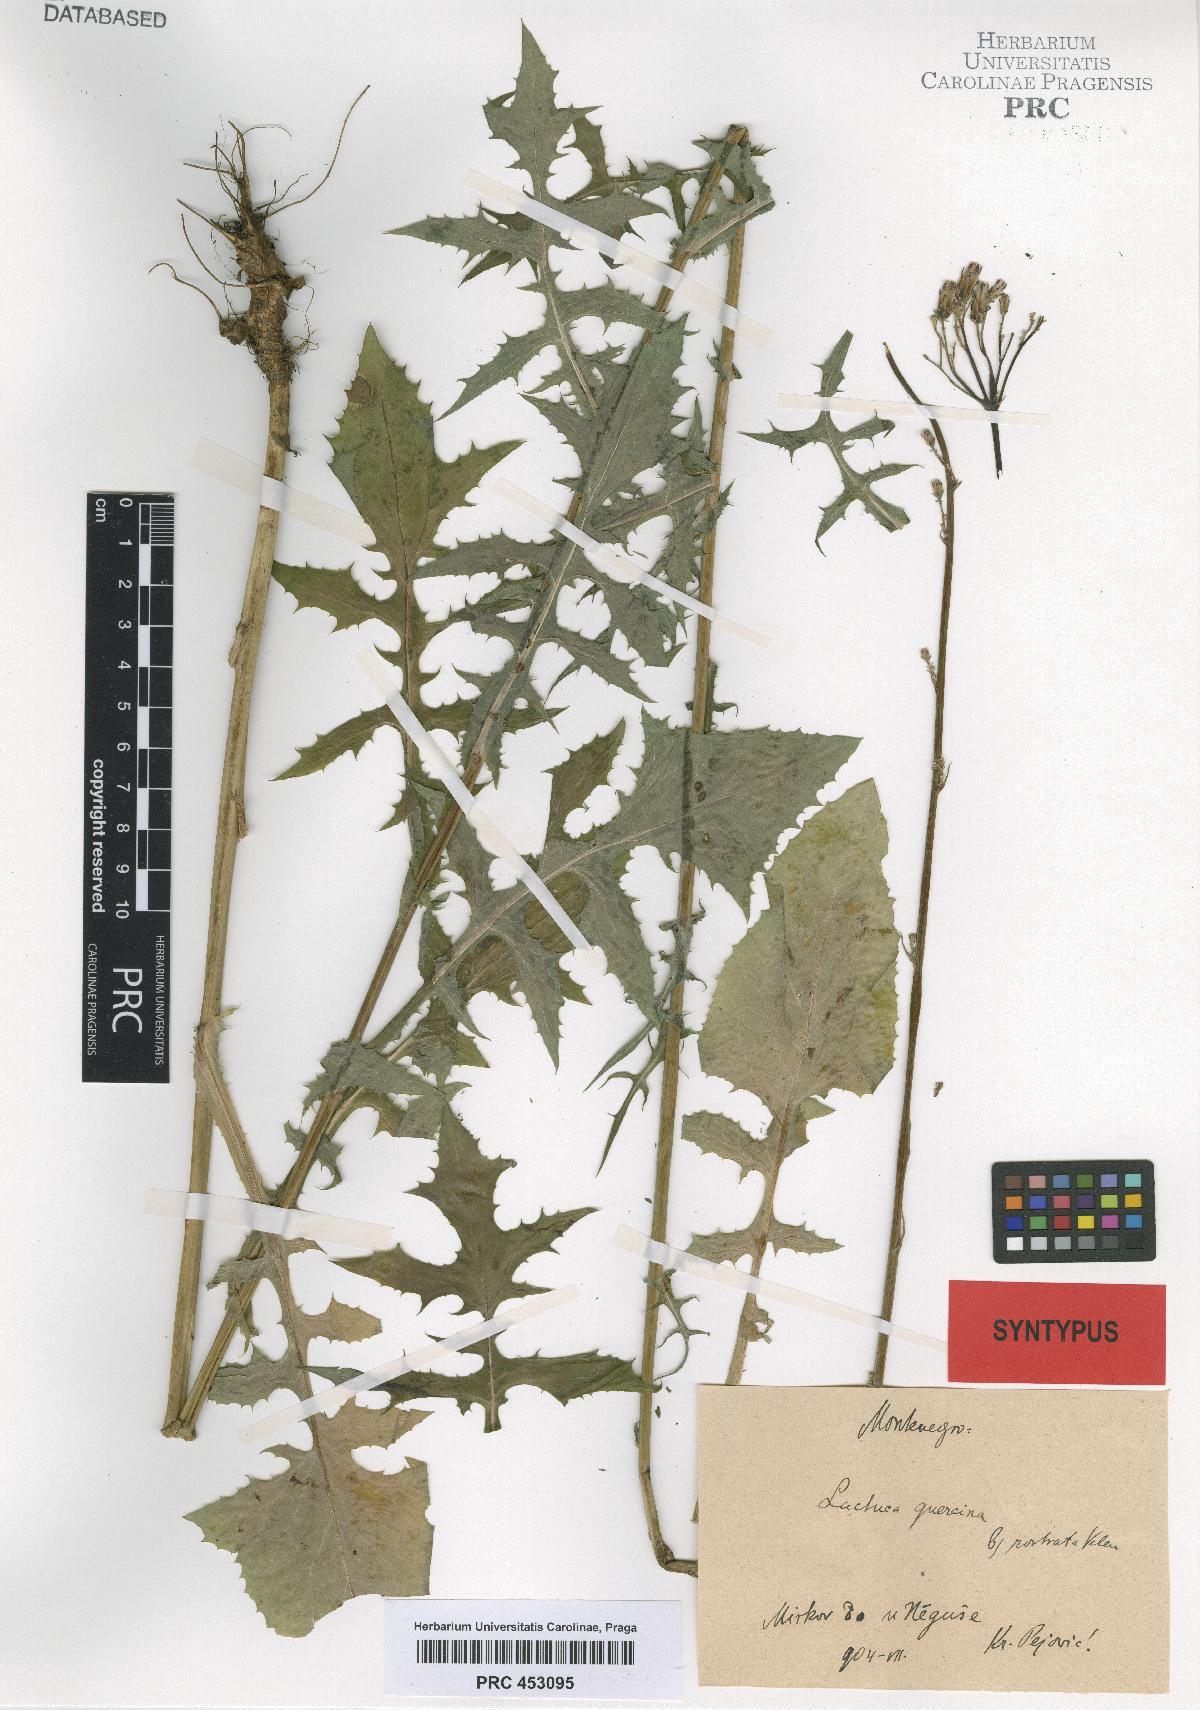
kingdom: Plantae
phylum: Tracheophyta
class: Magnoliopsida
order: Asterales
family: Asteraceae
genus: Lactuca
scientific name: Lactuca quercina
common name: Wild lettuce
